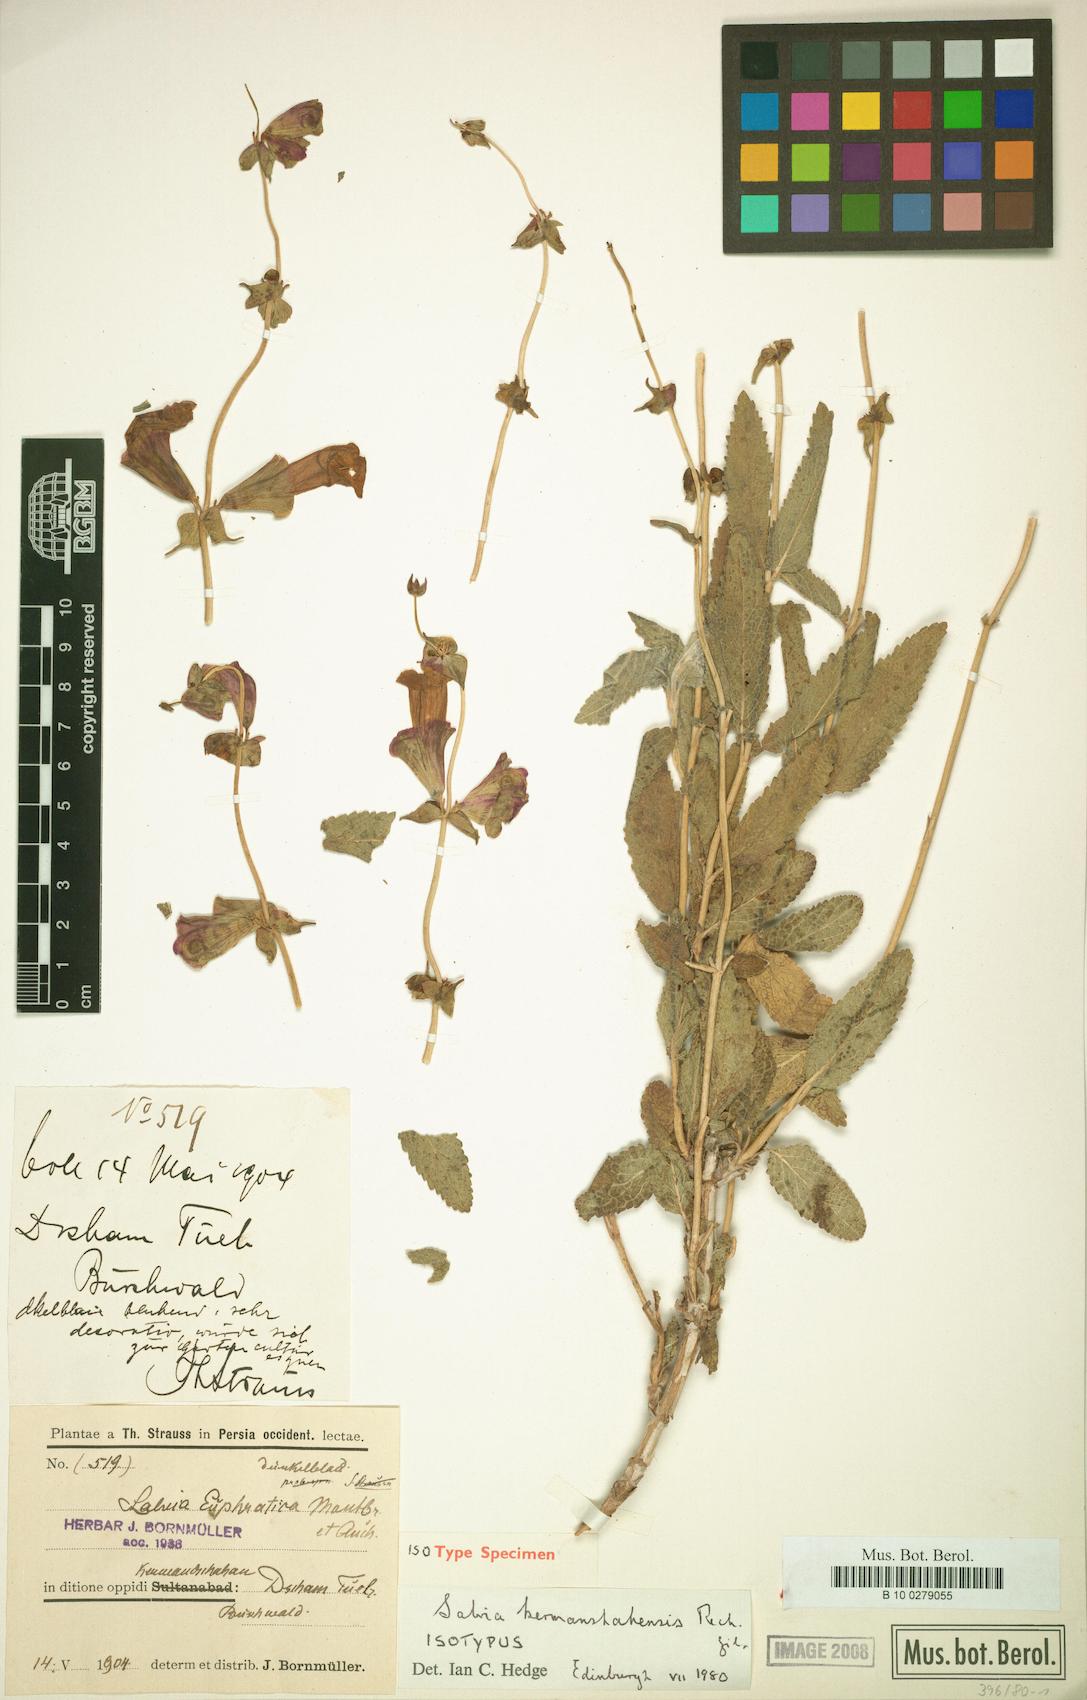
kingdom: Plantae
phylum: Tracheophyta
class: Magnoliopsida
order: Lamiales
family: Lamiaceae
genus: Salvia
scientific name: Salvia kermanshahensis
